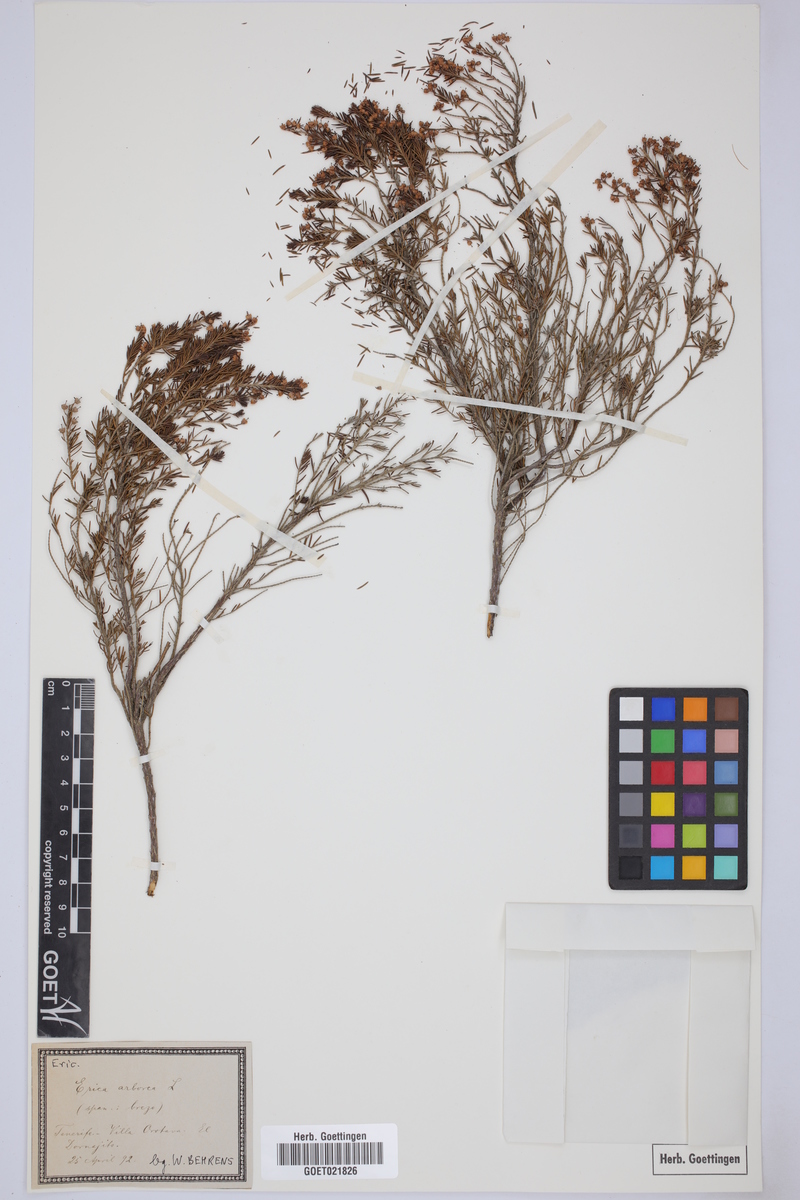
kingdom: Plantae
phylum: Tracheophyta
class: Magnoliopsida
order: Ericales
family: Ericaceae
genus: Erica
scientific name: Erica arborea
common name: Tree heath
